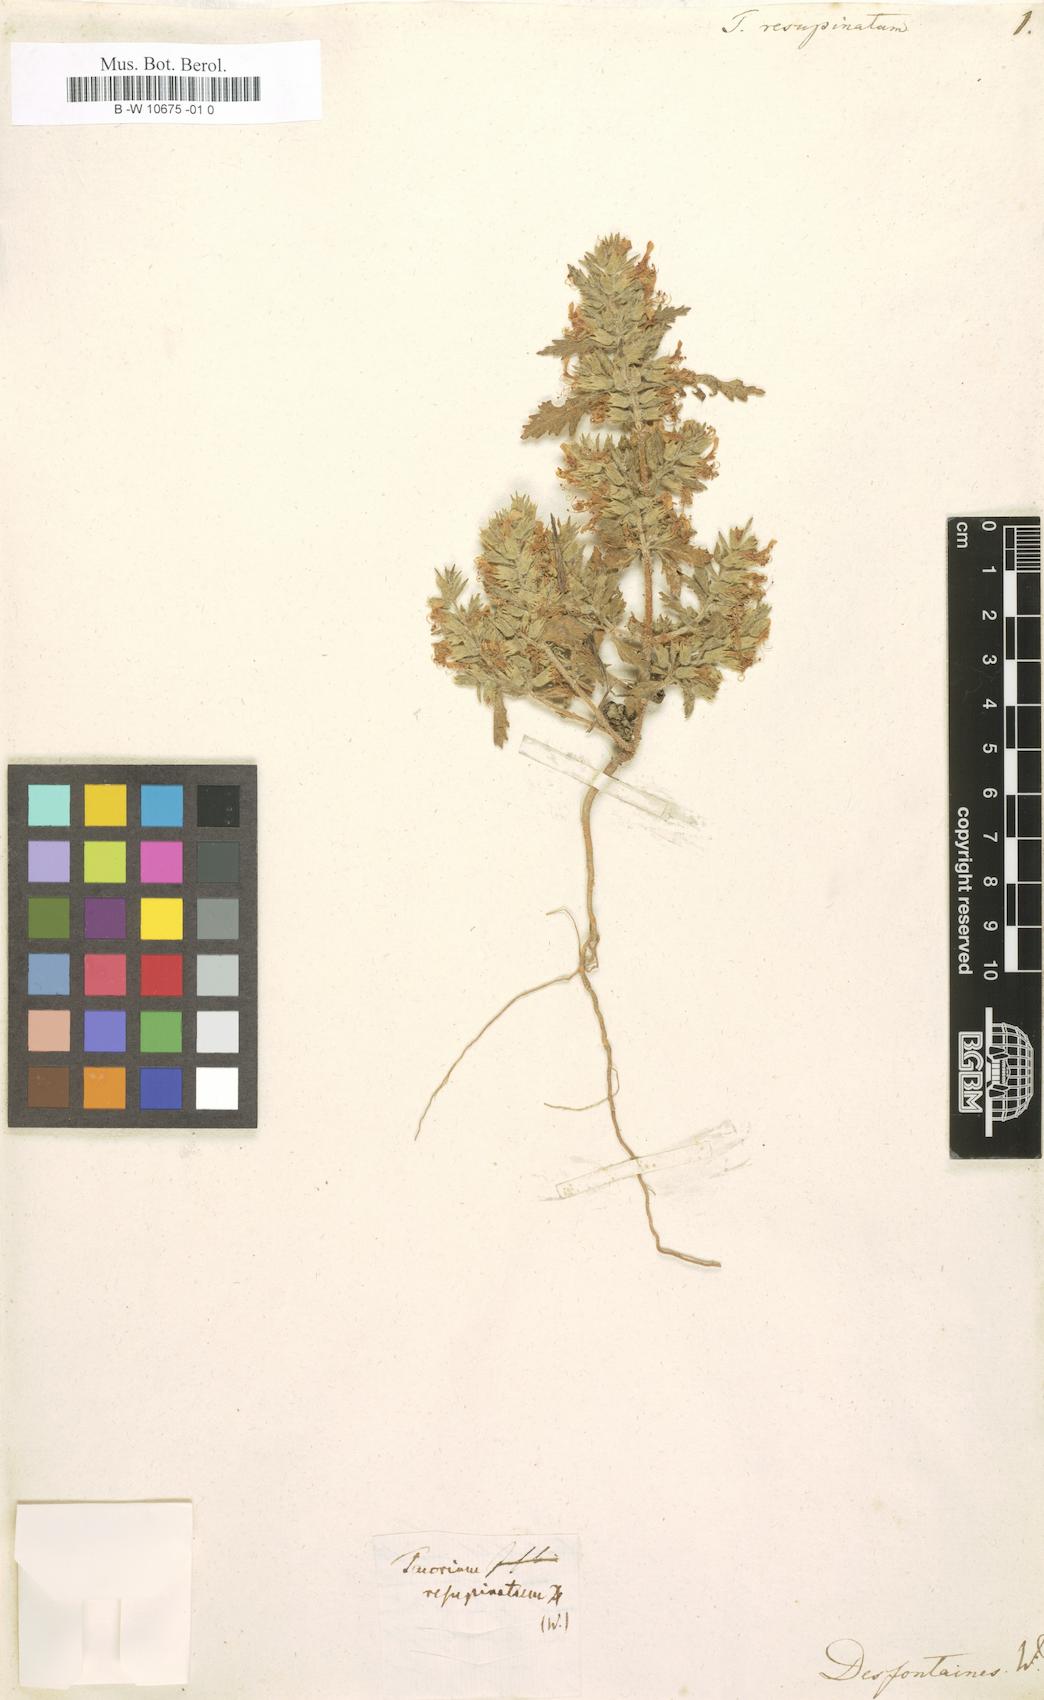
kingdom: Plantae
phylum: Tracheophyta
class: Magnoliopsida
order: Lamiales
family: Lamiaceae
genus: Teucrium
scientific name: Teucrium resupinatum
